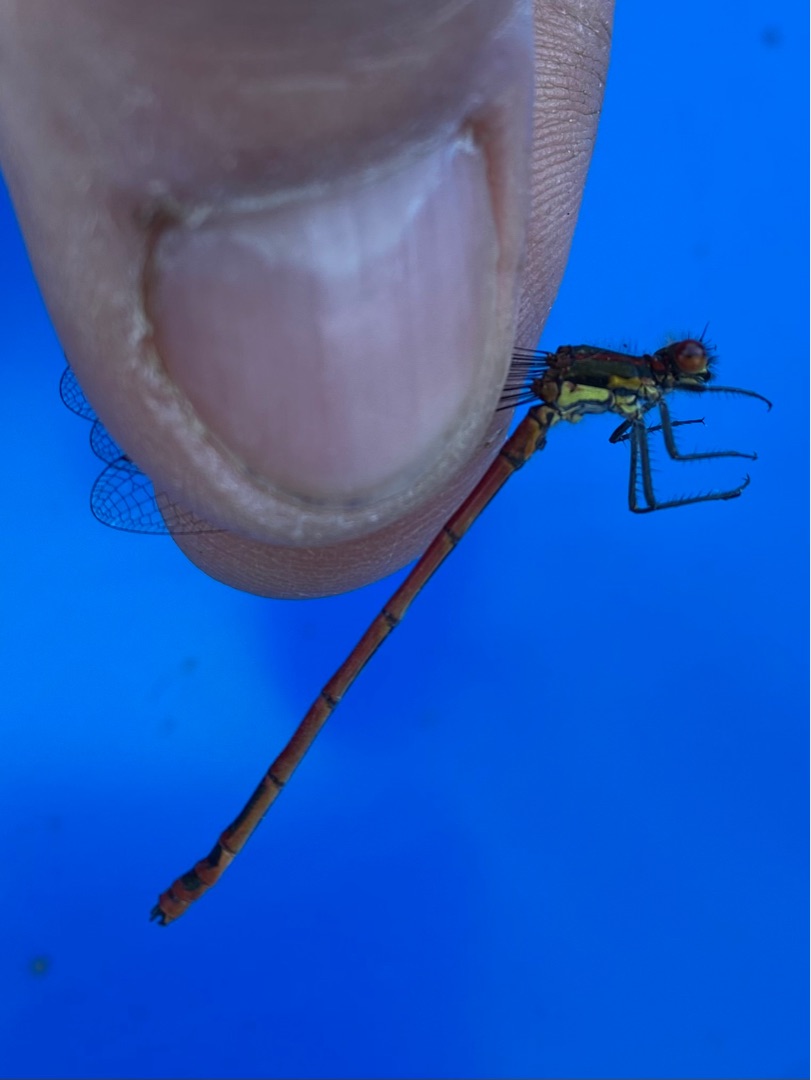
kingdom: Animalia
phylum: Arthropoda
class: Insecta
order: Odonata
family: Coenagrionidae
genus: Pyrrhosoma
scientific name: Pyrrhosoma nymphula
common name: Rød vandnymfe
